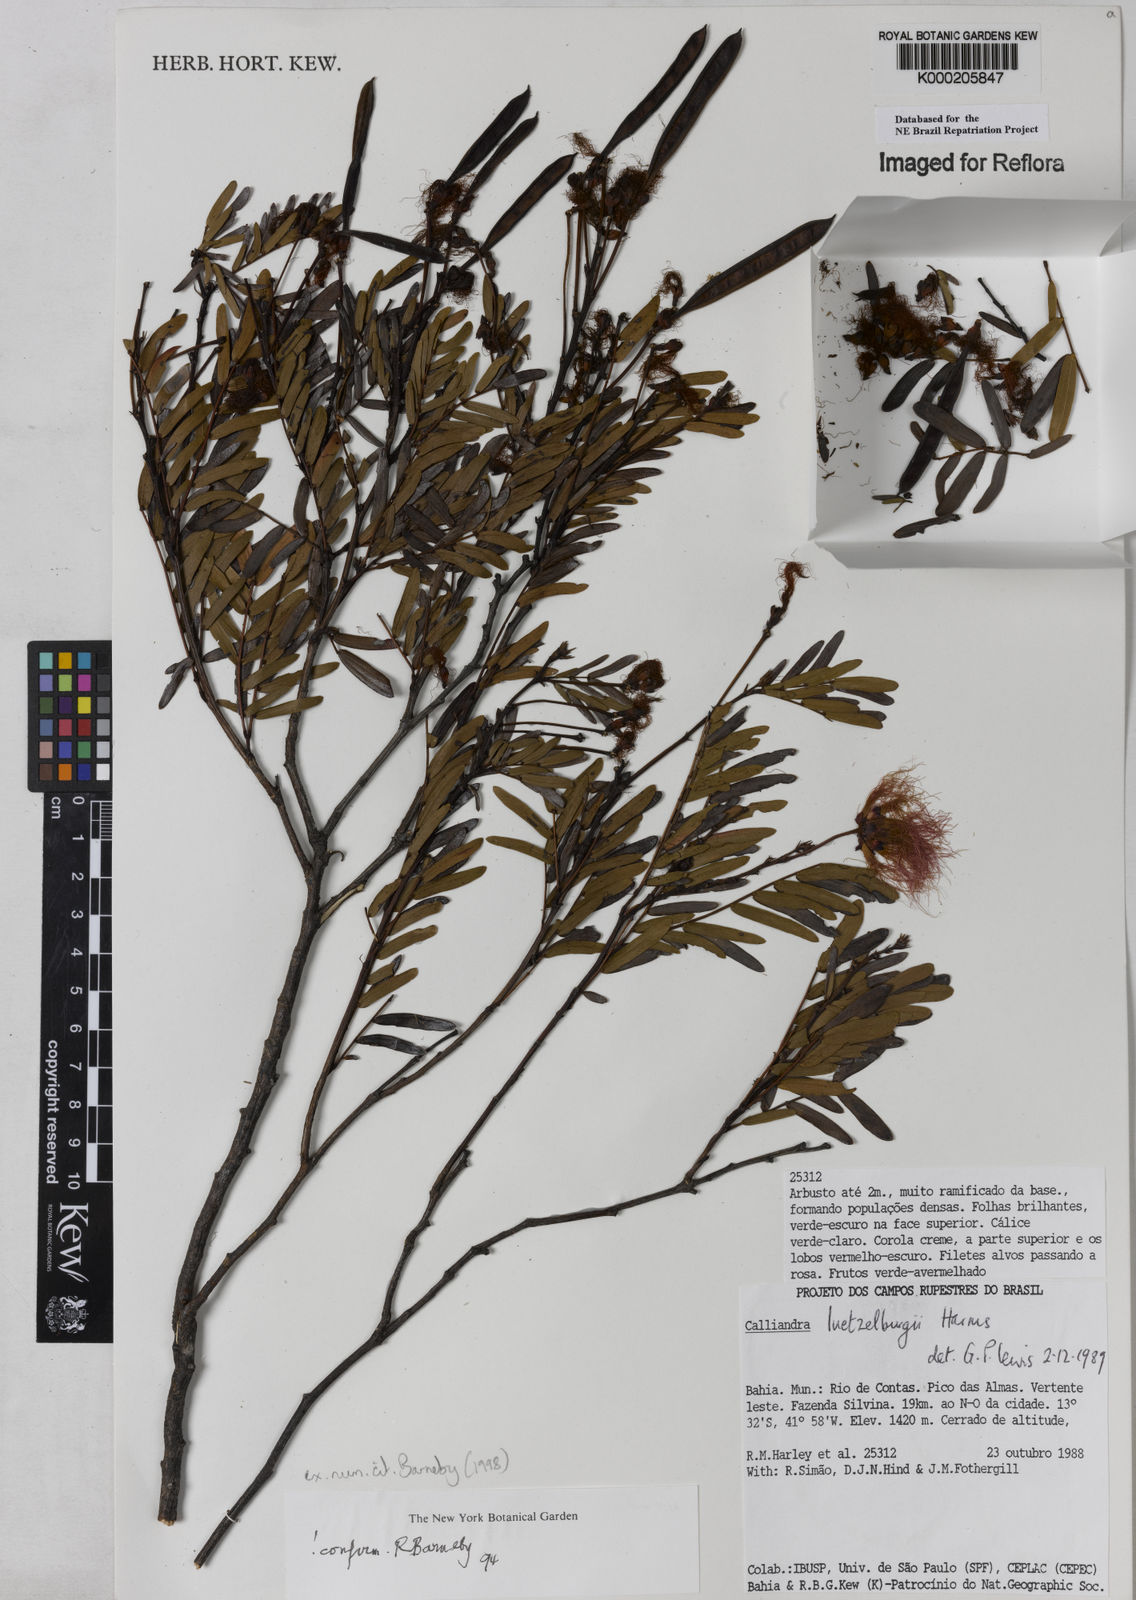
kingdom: Plantae
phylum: Tracheophyta
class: Magnoliopsida
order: Fabales
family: Fabaceae
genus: Calliandra
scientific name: Calliandra luetzelburgii
